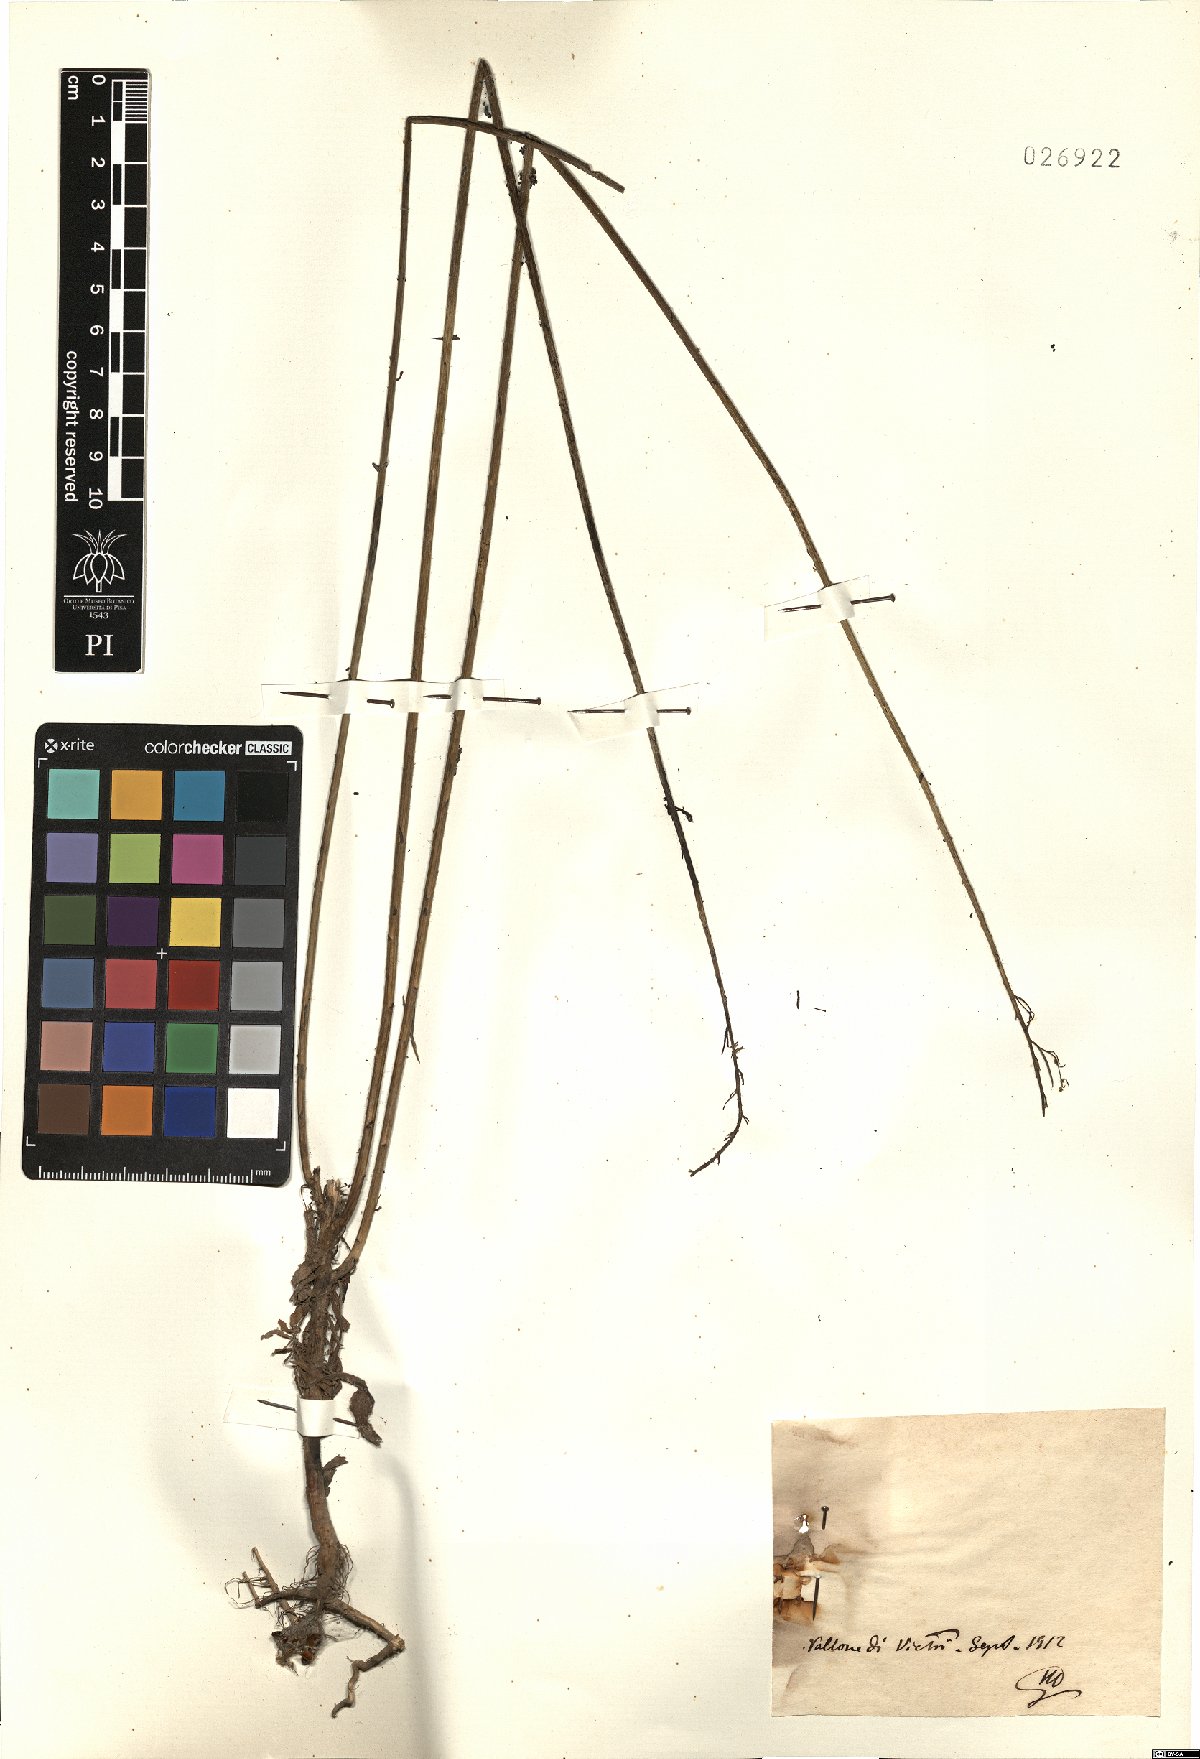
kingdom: Plantae
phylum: Tracheophyta
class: Magnoliopsida
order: Asterales
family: Asteraceae
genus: Erigeron
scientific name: Erigeron
